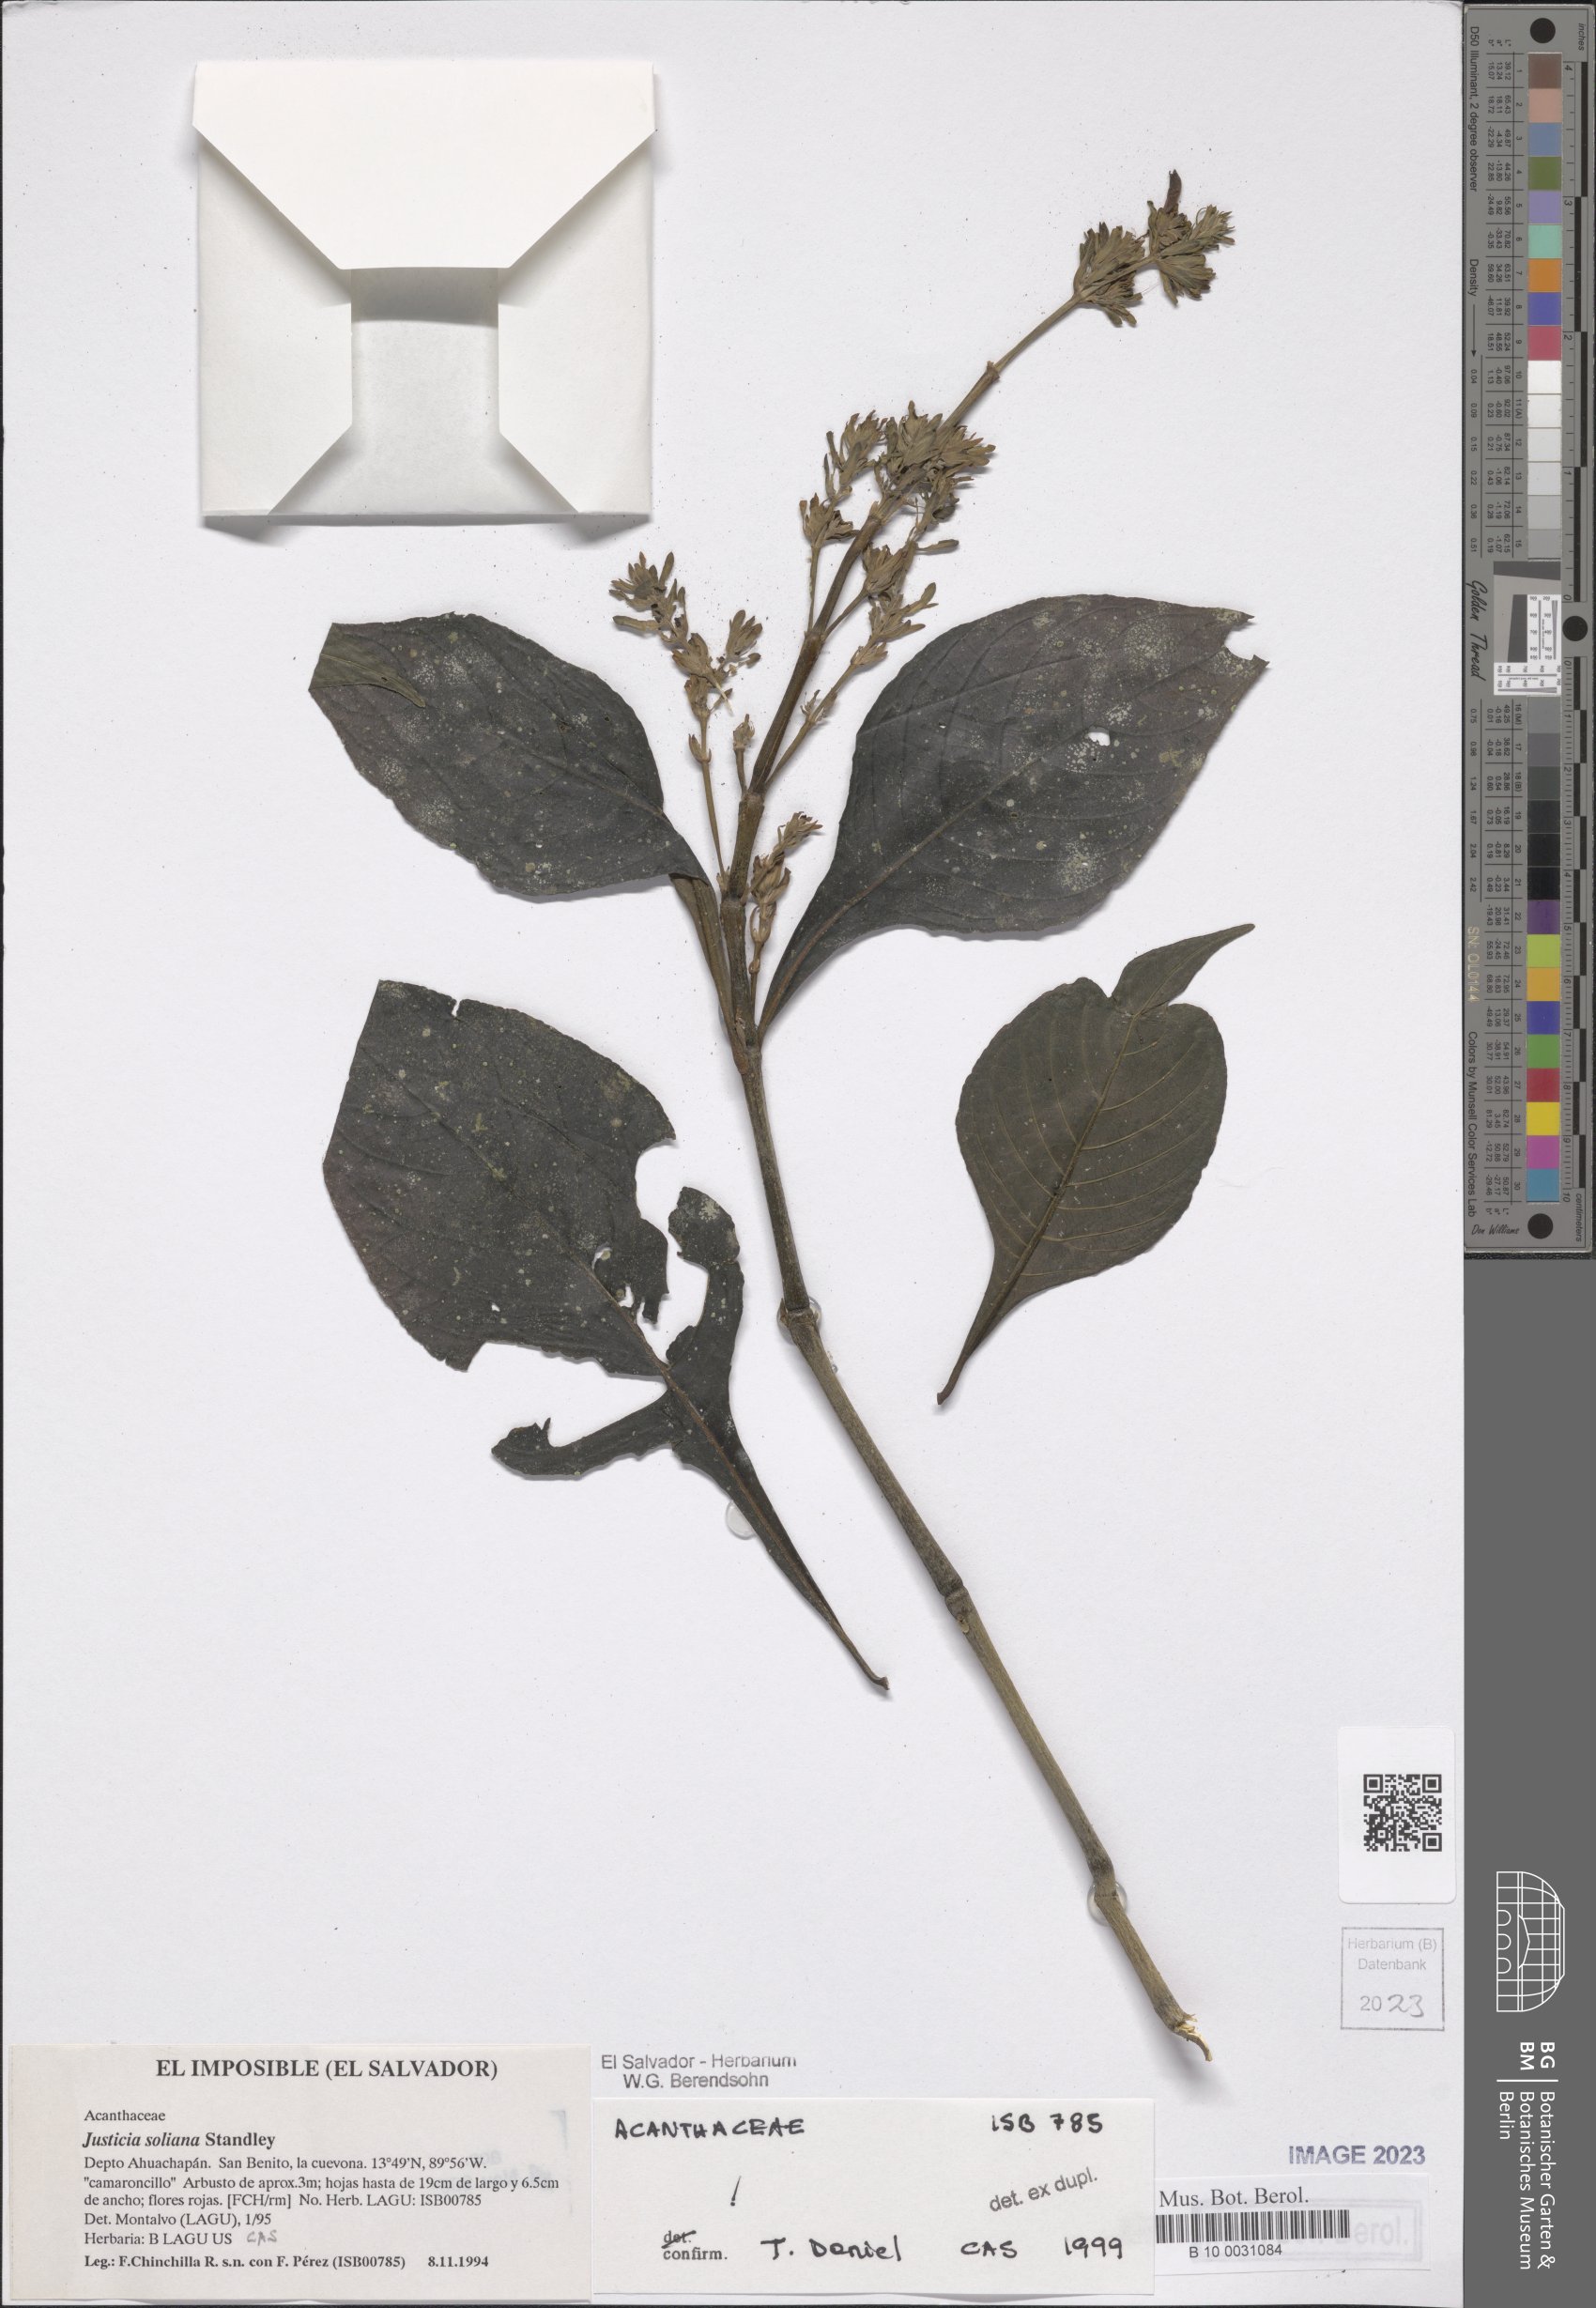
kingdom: Plantae
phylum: Tracheophyta
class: Magnoliopsida
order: Lamiales
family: Acanthaceae
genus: Justicia
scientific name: Justicia soliana
